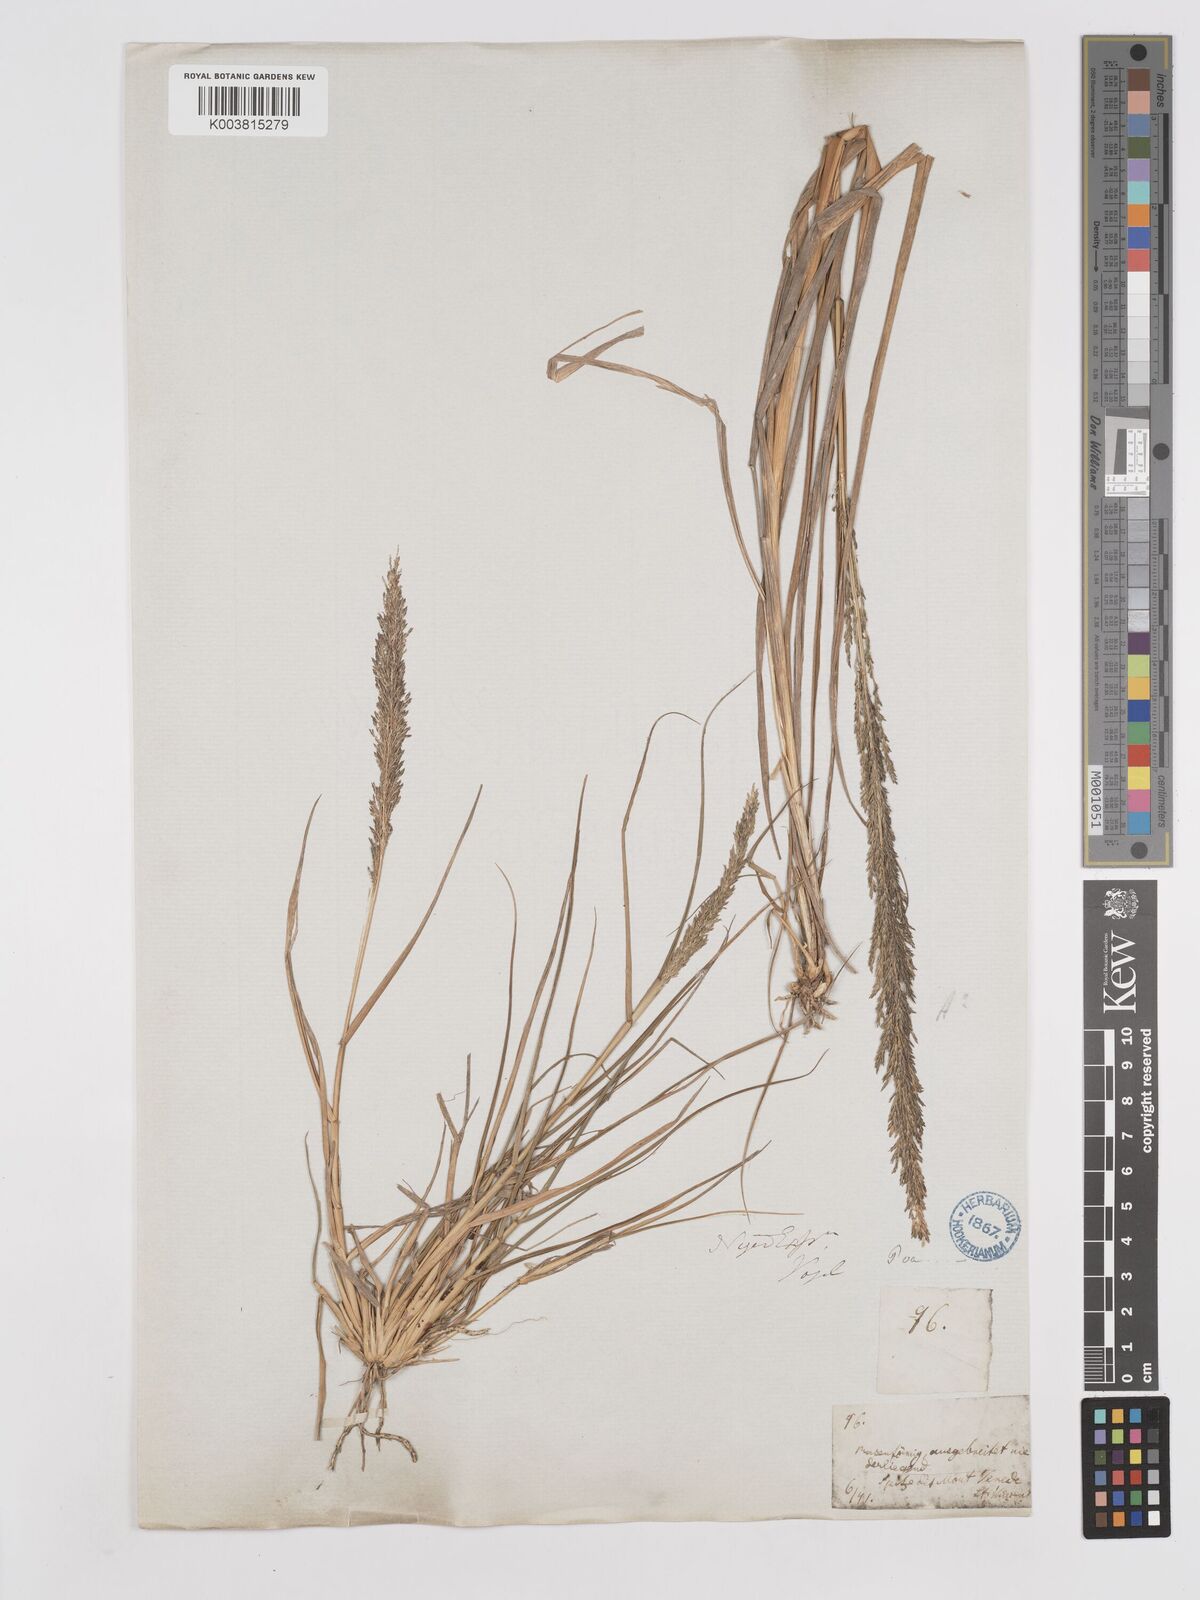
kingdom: Plantae
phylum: Tracheophyta
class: Liliopsida
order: Poales
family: Poaceae
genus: Eragrostis
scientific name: Eragrostis prolifera
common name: Dominican lovegrass
